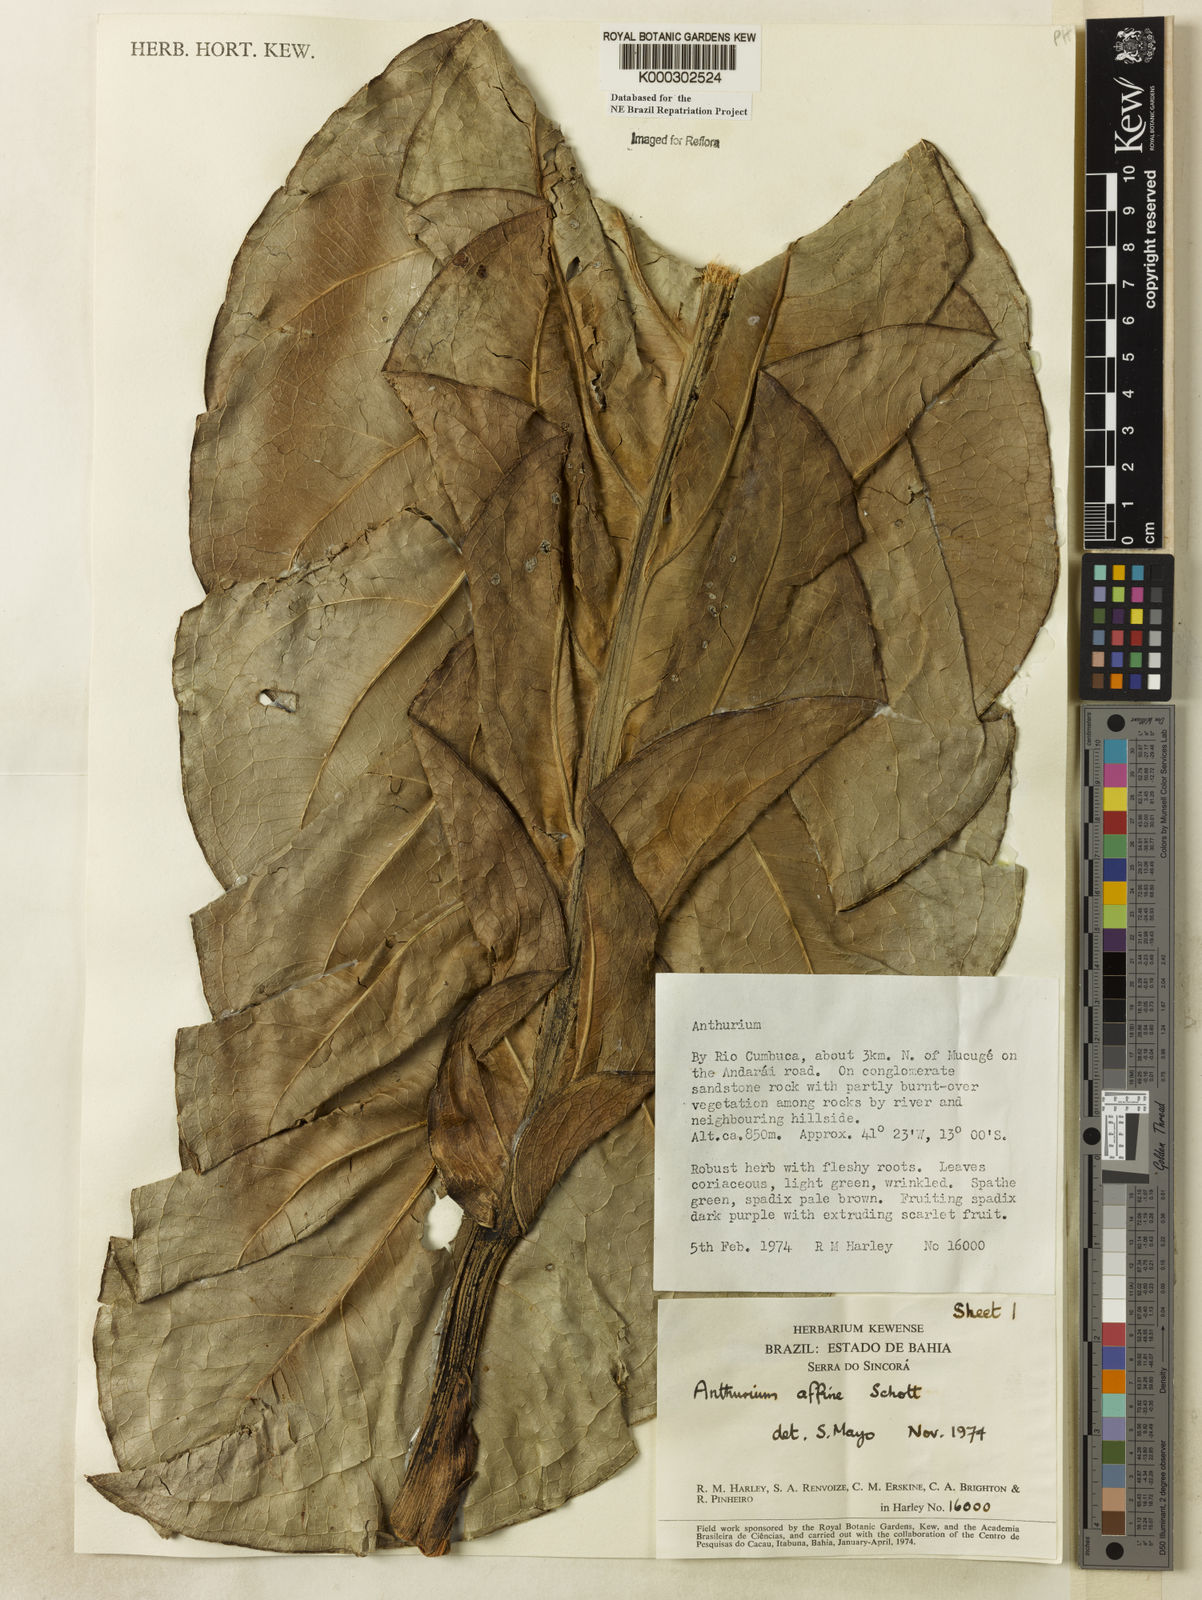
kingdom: Plantae
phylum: Tracheophyta
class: Liliopsida
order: Alismatales
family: Araceae
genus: Anthurium
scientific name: Anthurium affine
